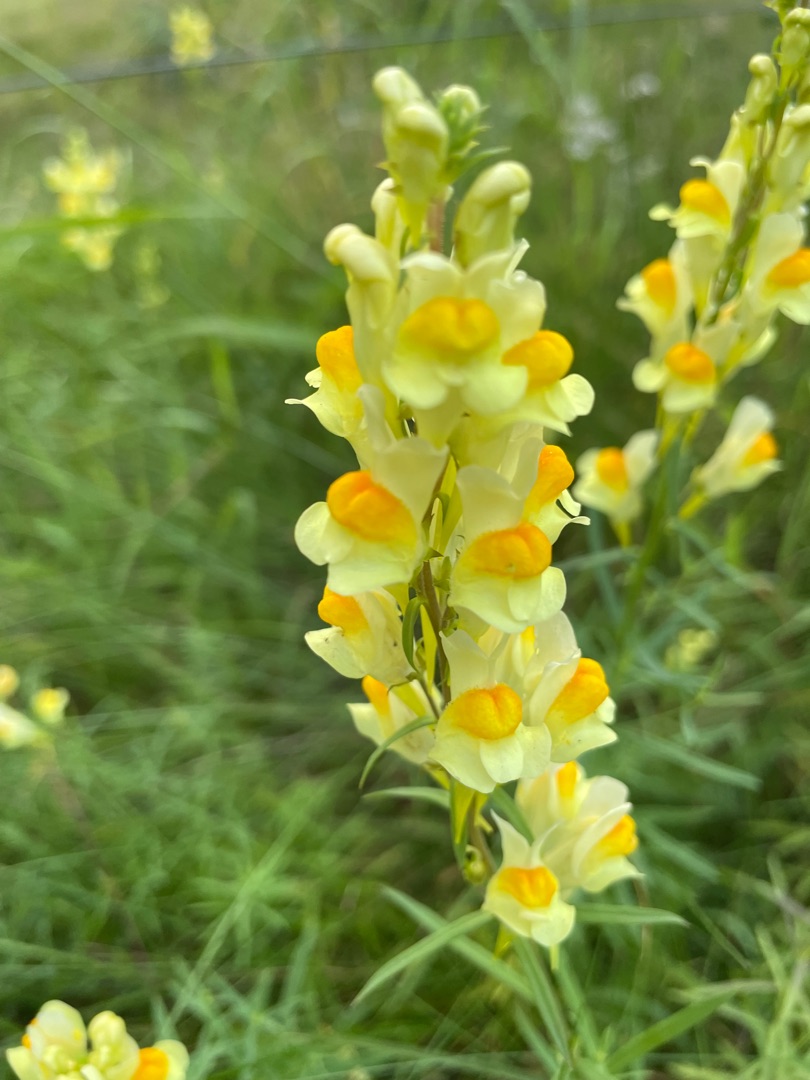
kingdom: Plantae
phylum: Tracheophyta
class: Magnoliopsida
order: Lamiales
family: Plantaginaceae
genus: Linaria
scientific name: Linaria vulgaris
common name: Almindelig torskemund
